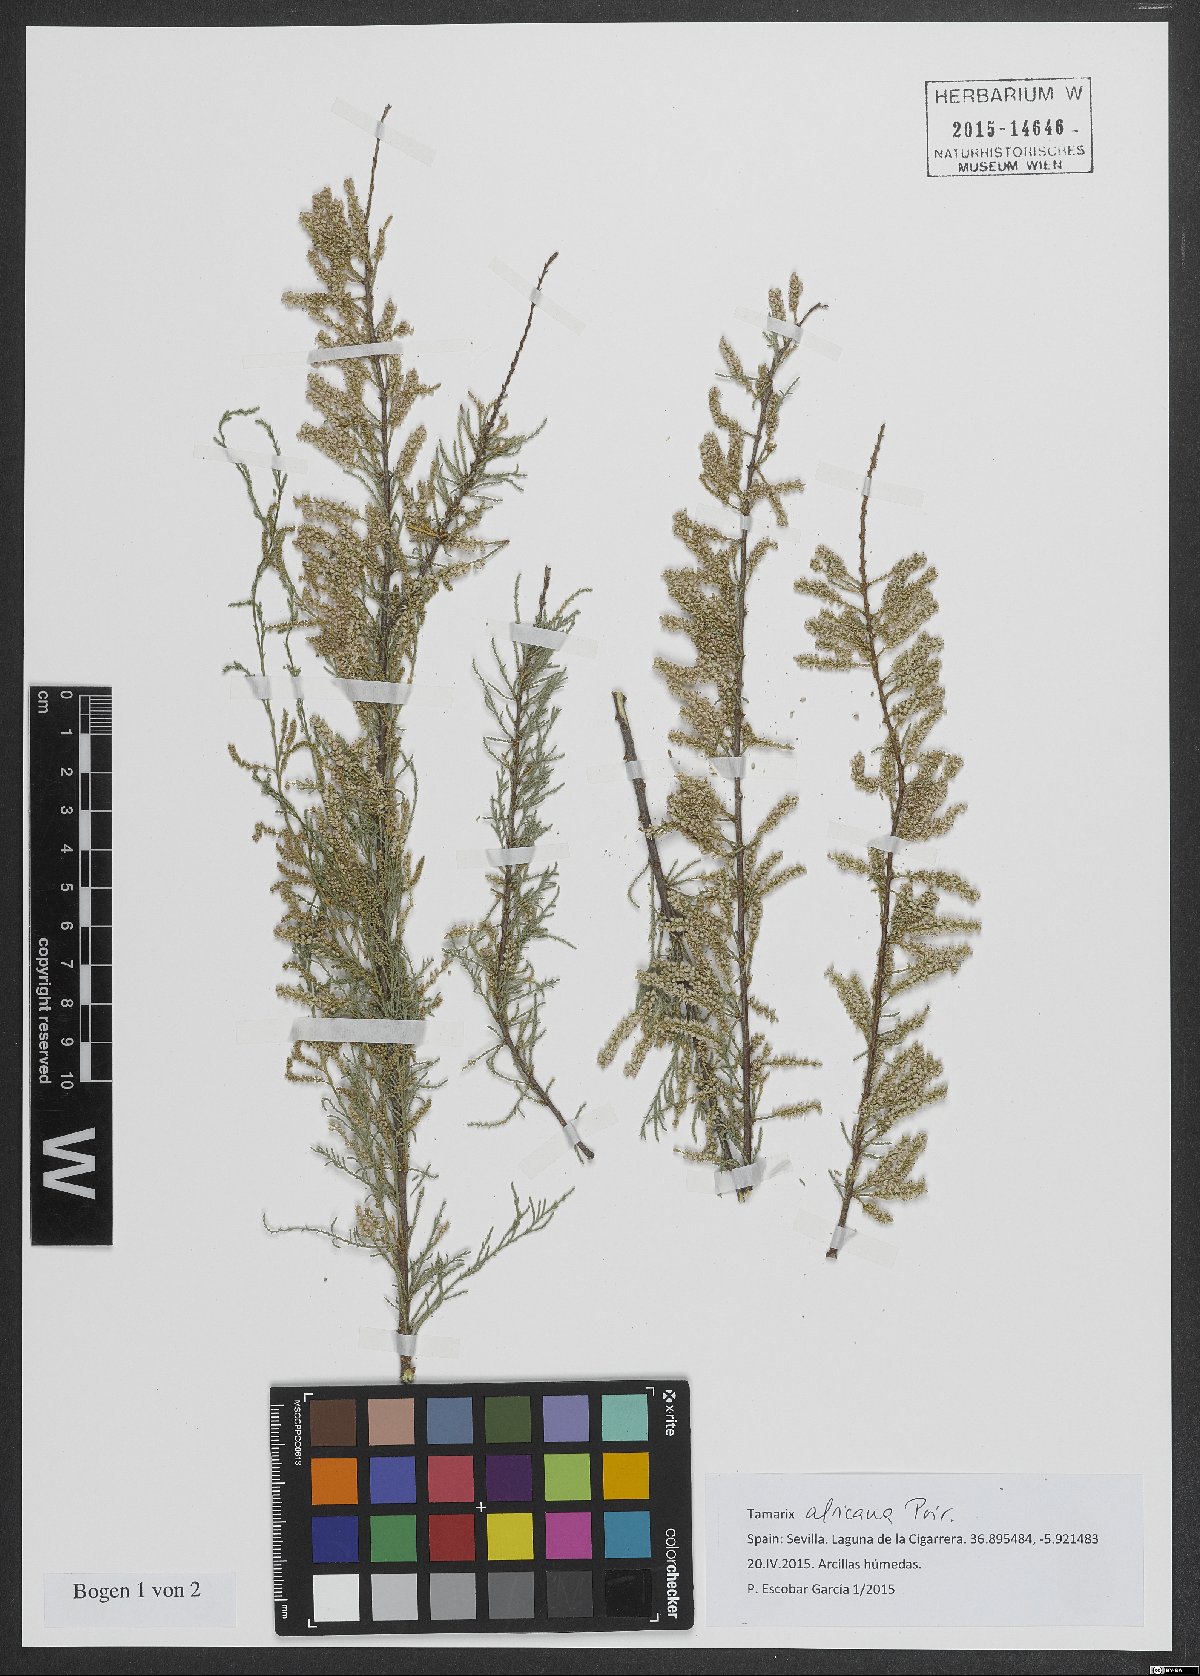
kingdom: Plantae
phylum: Tracheophyta
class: Magnoliopsida
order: Caryophyllales
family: Tamaricaceae
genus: Tamarix
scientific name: Tamarix africana
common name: African tamarisk
